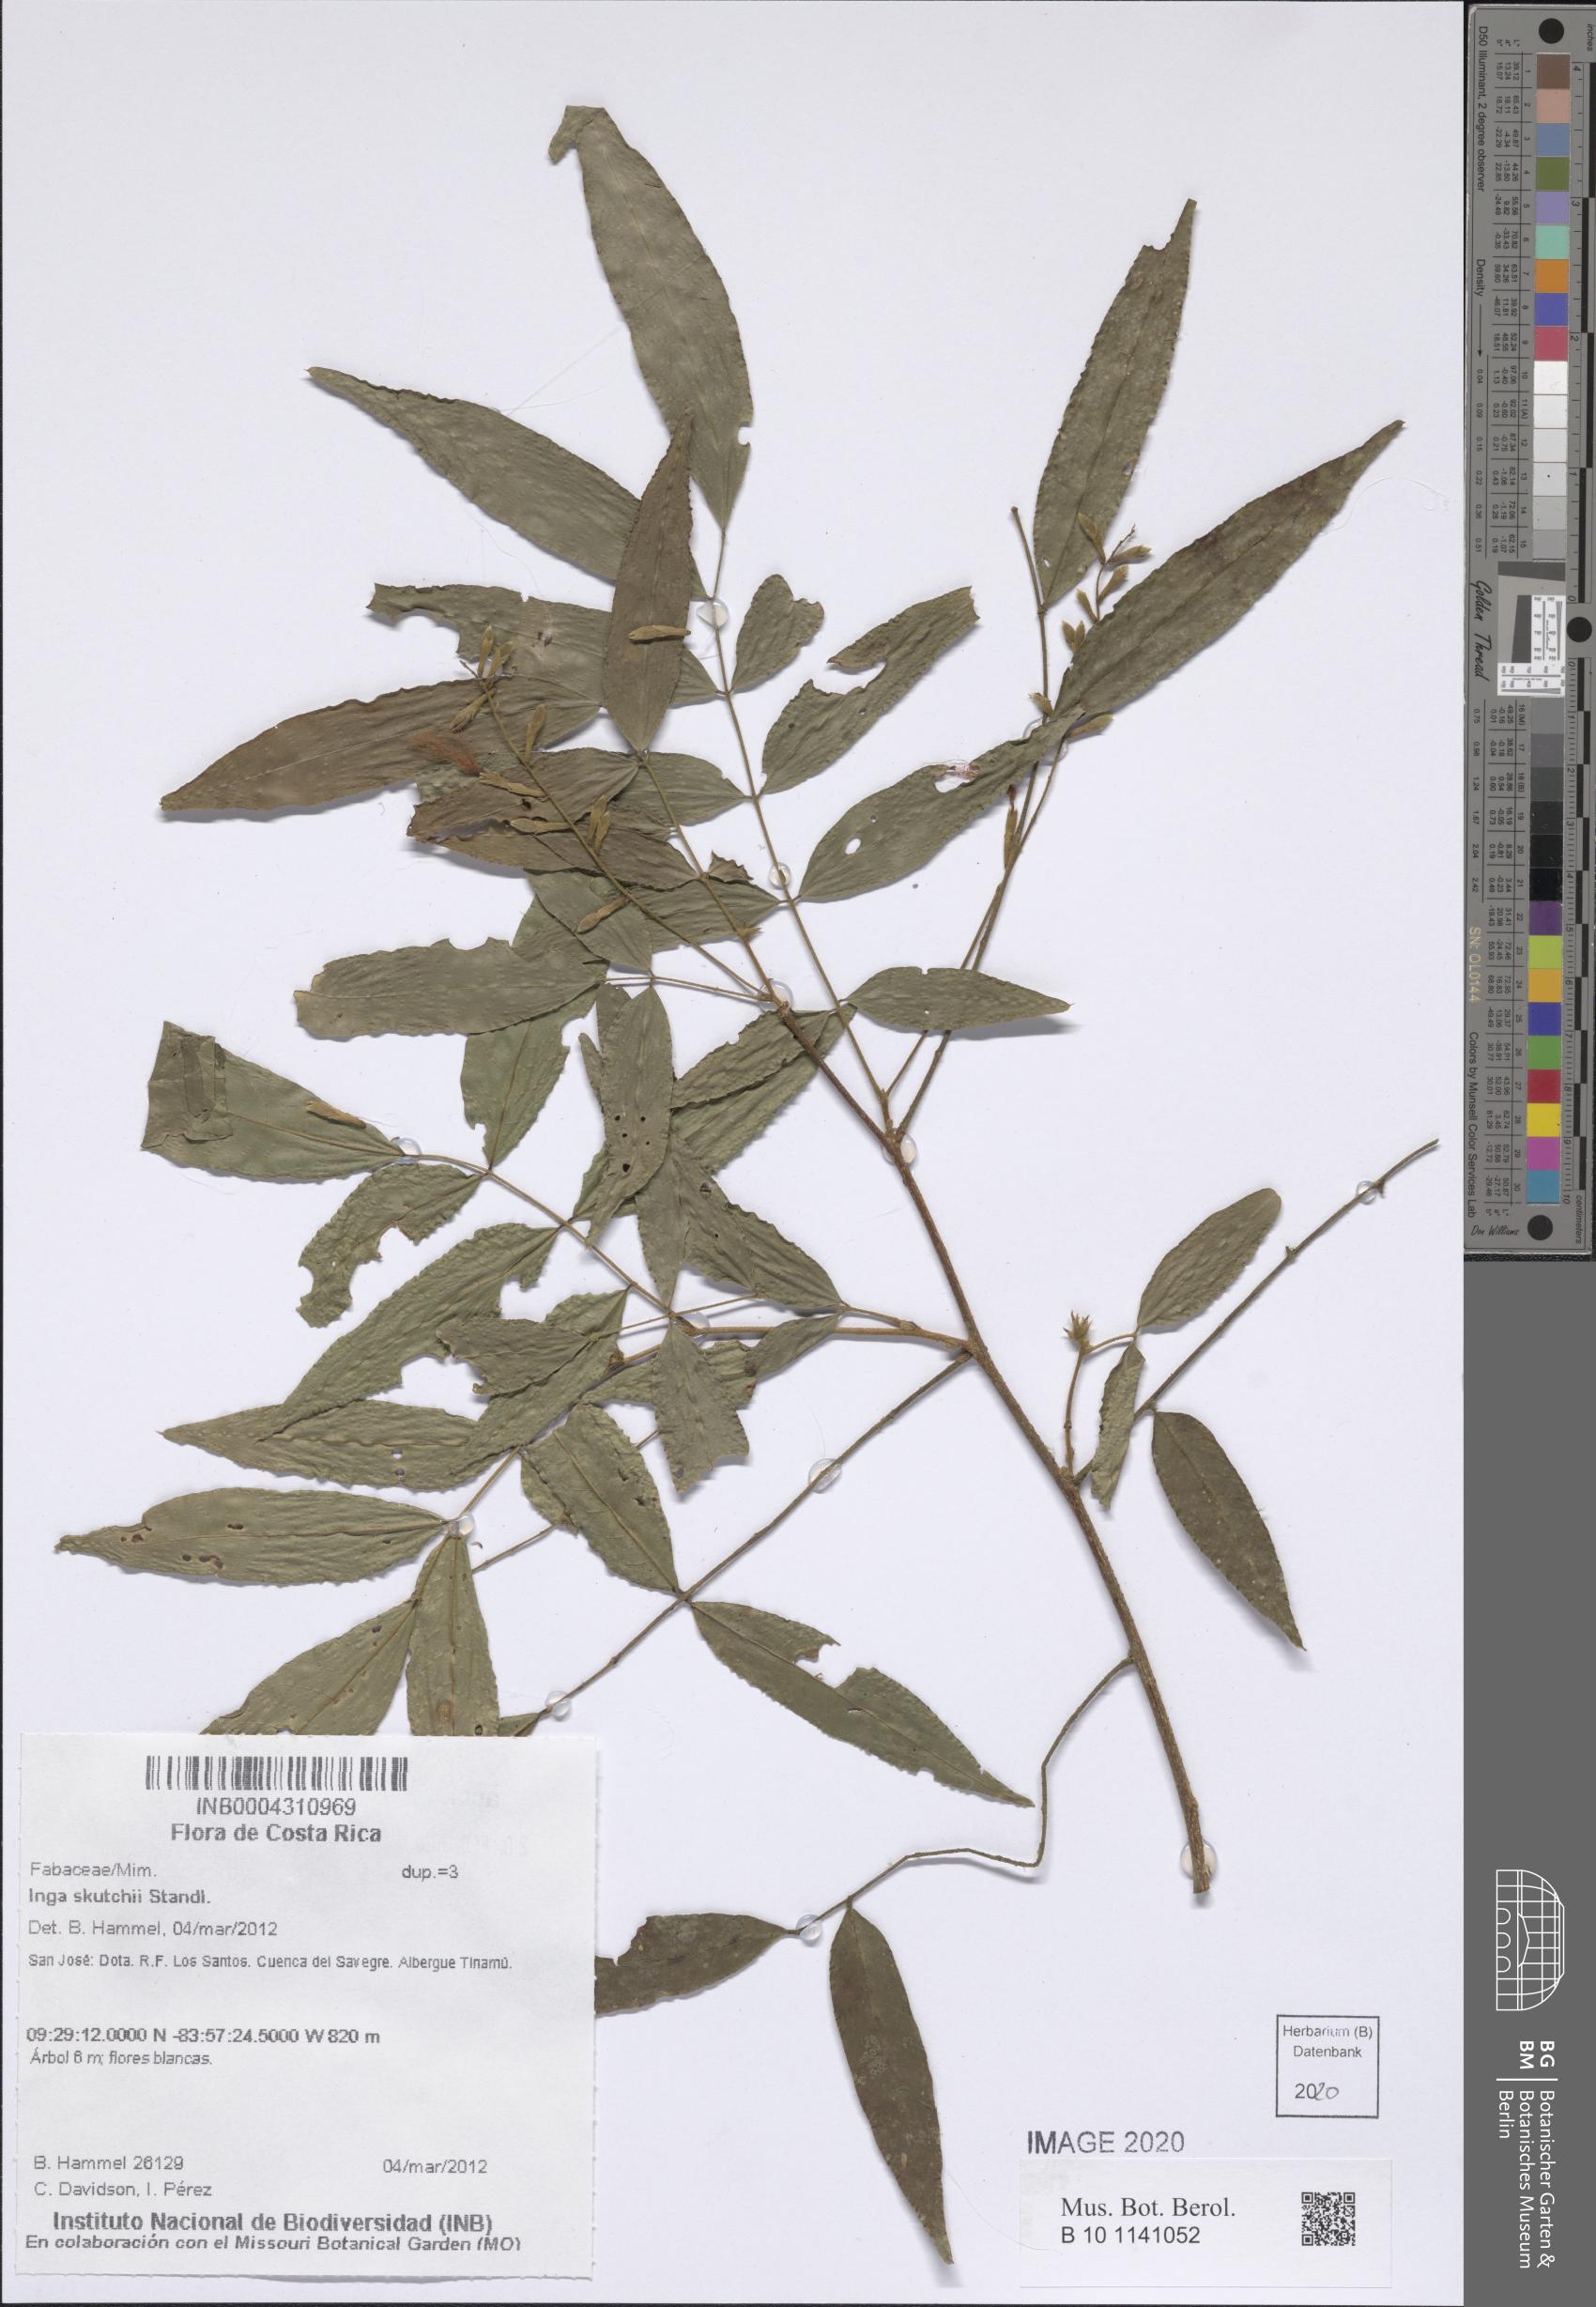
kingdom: Plantae
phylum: Tracheophyta
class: Magnoliopsida
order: Fabales
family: Fabaceae
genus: Inga
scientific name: Inga skutchii
